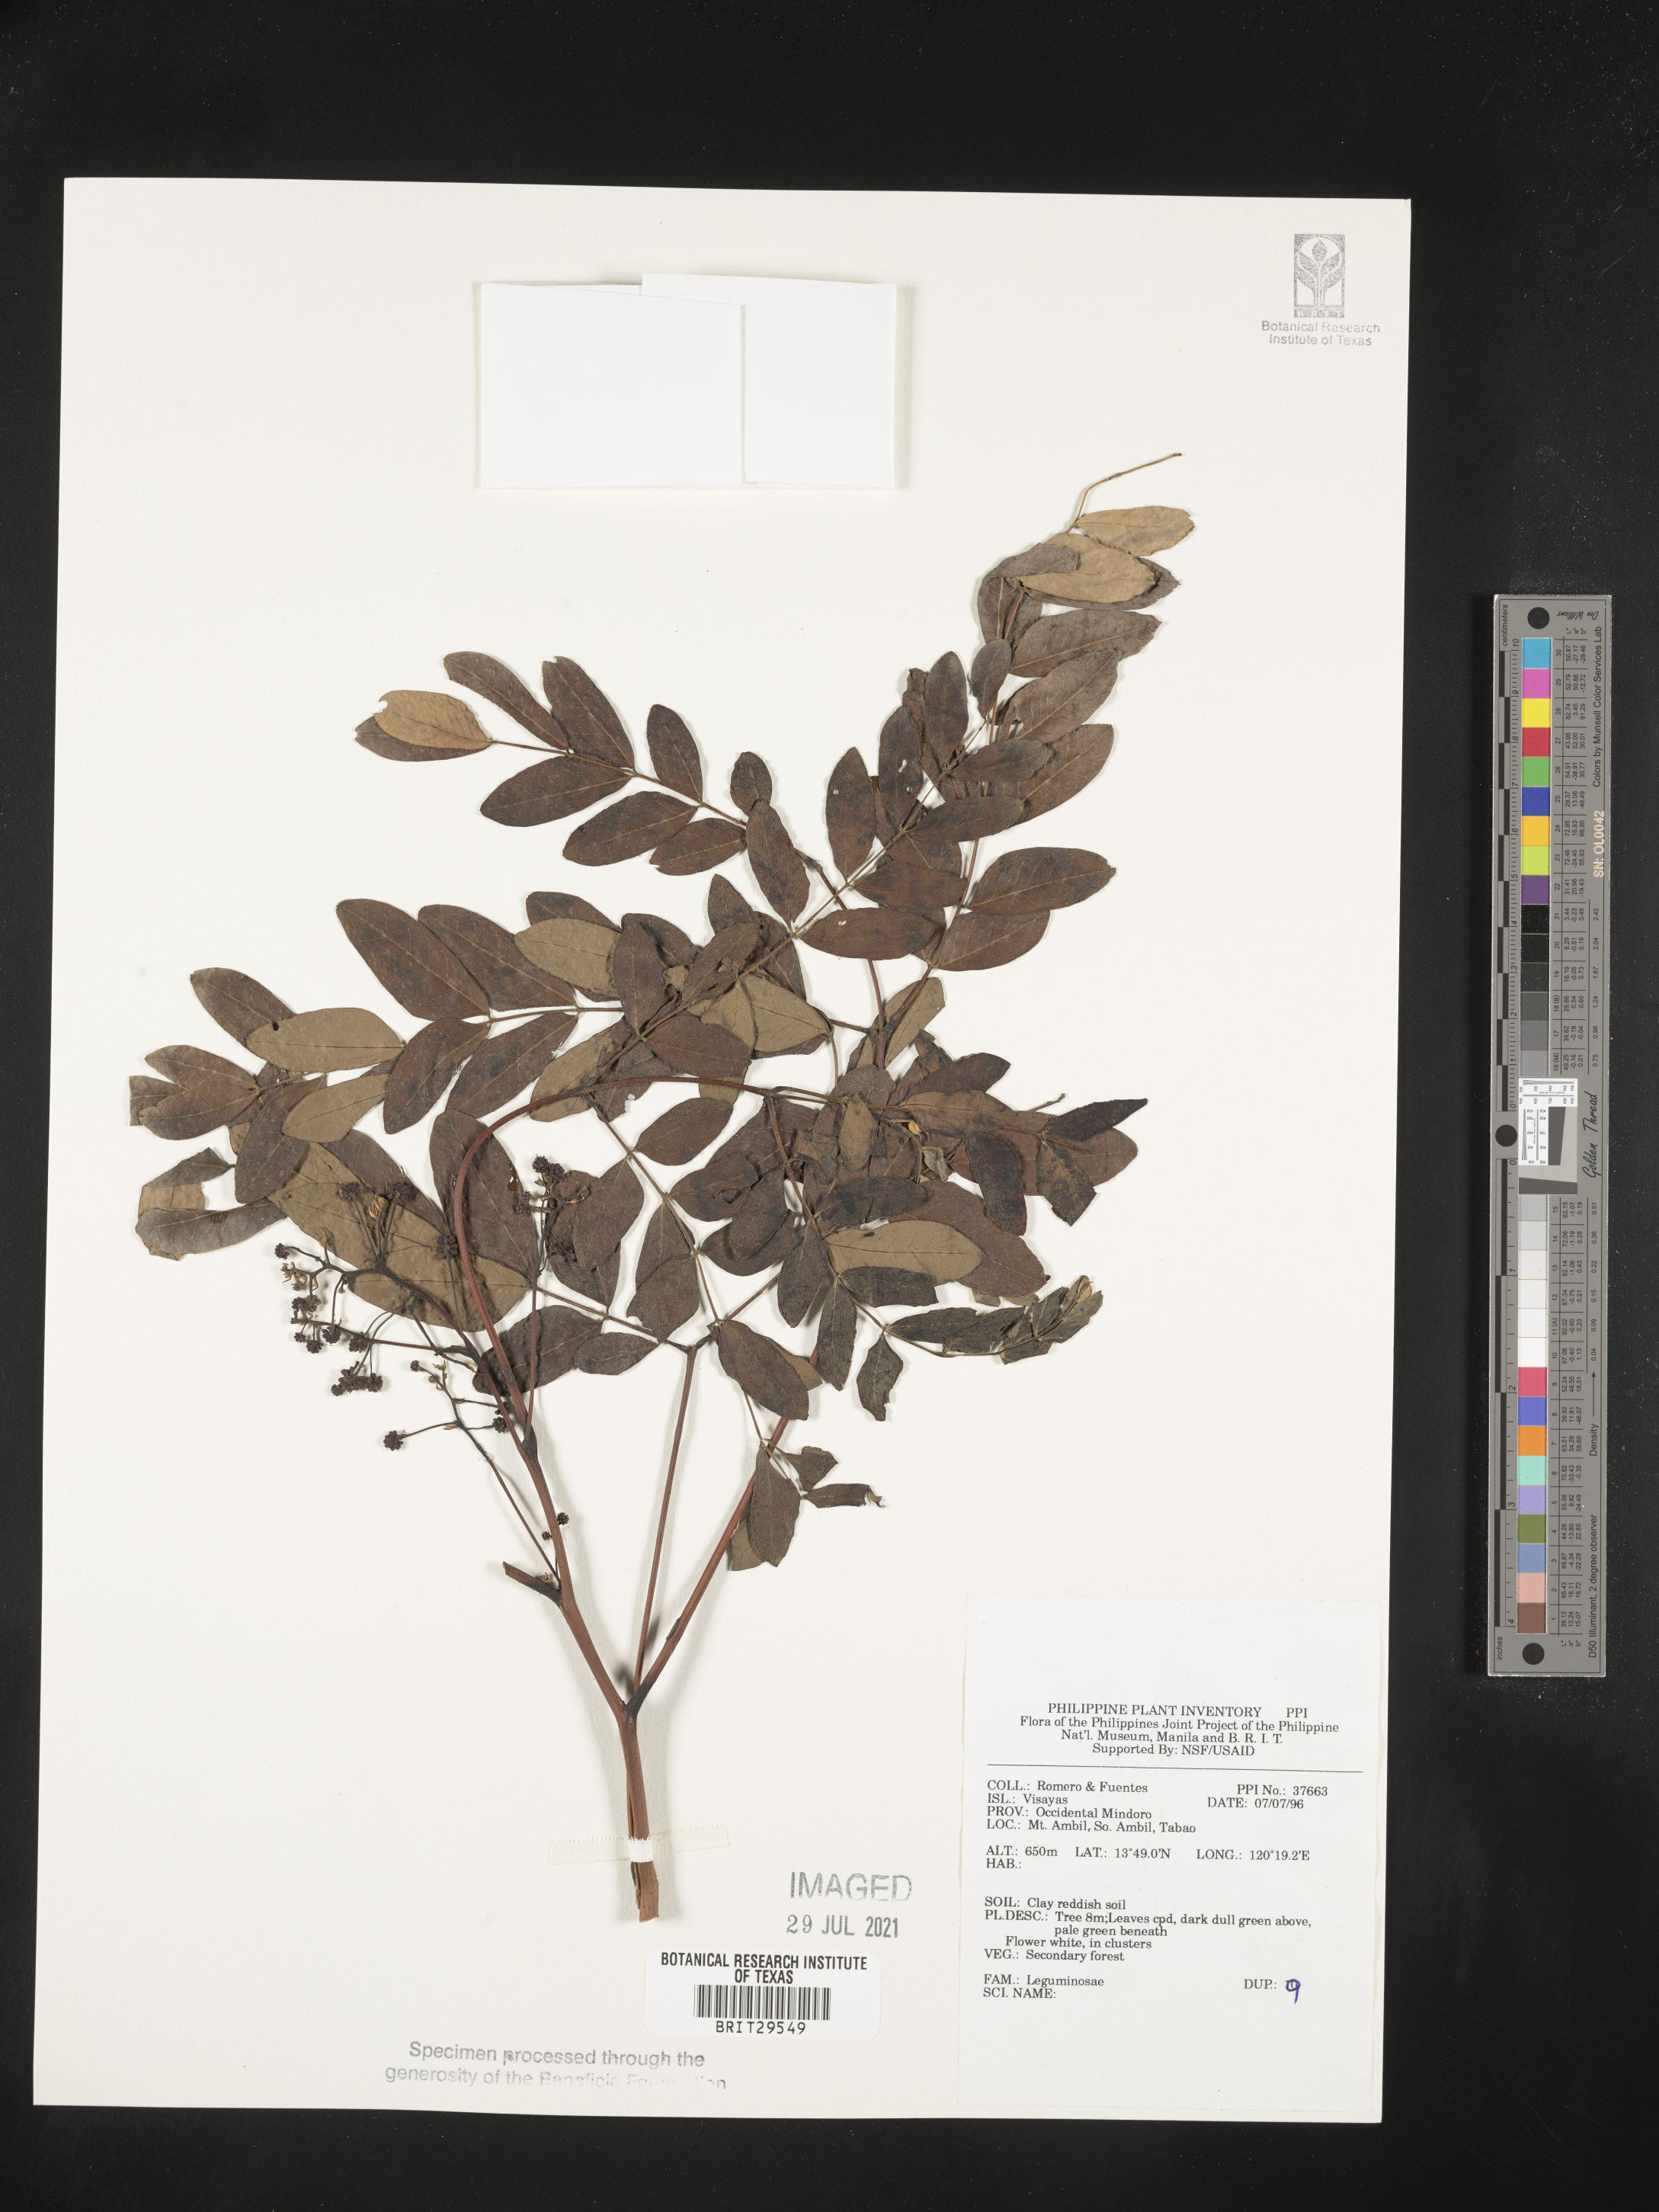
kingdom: Plantae
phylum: Tracheophyta
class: Magnoliopsida
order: Fabales
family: Fabaceae
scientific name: Fabaceae
